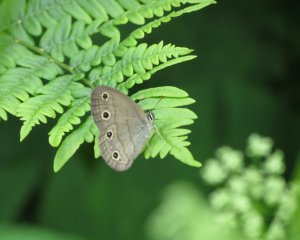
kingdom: Animalia
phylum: Arthropoda
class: Insecta
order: Lepidoptera
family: Nymphalidae
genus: Euptychia
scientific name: Euptychia cymela
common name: Little Wood Satyr
